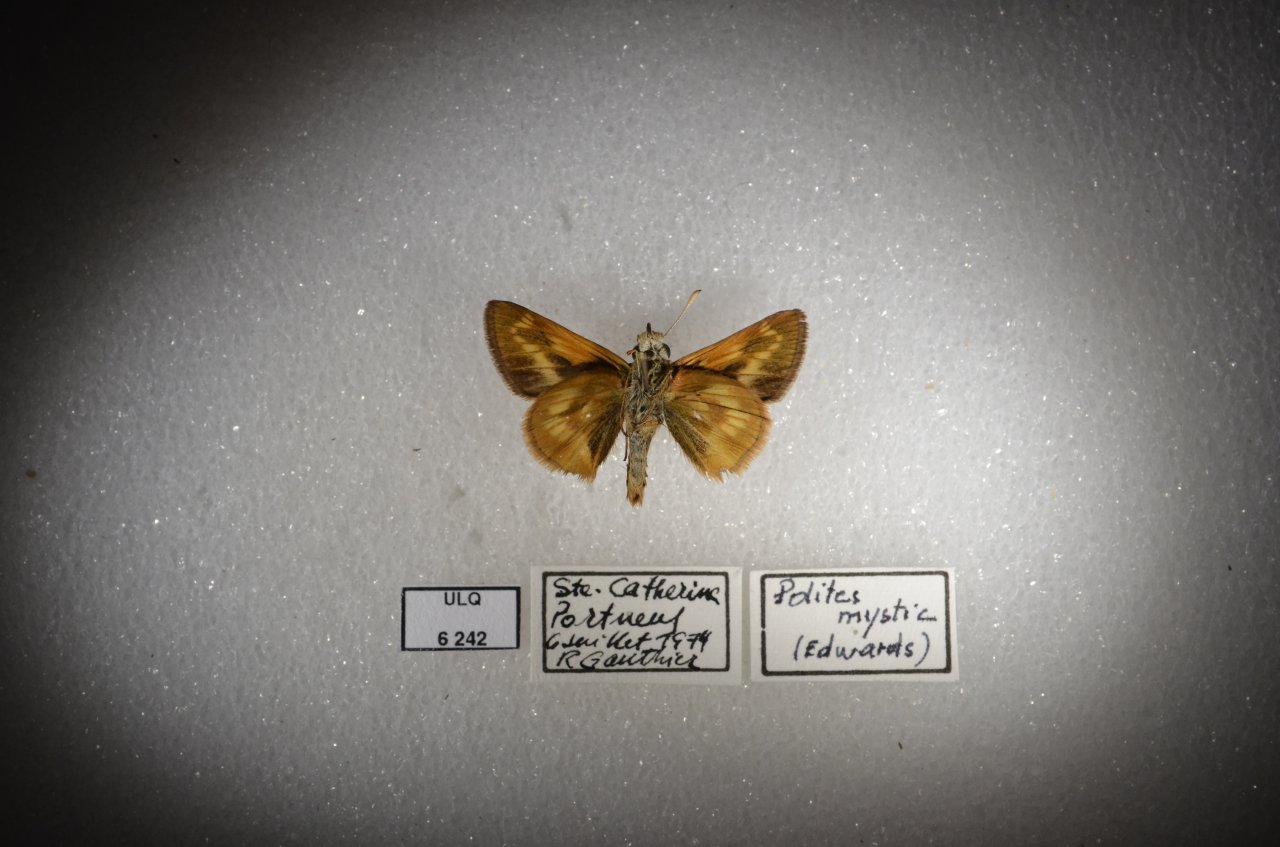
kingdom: Animalia
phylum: Arthropoda
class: Insecta
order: Lepidoptera
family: Hesperiidae
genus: Polites
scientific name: Polites
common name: Long Dash Skipper
